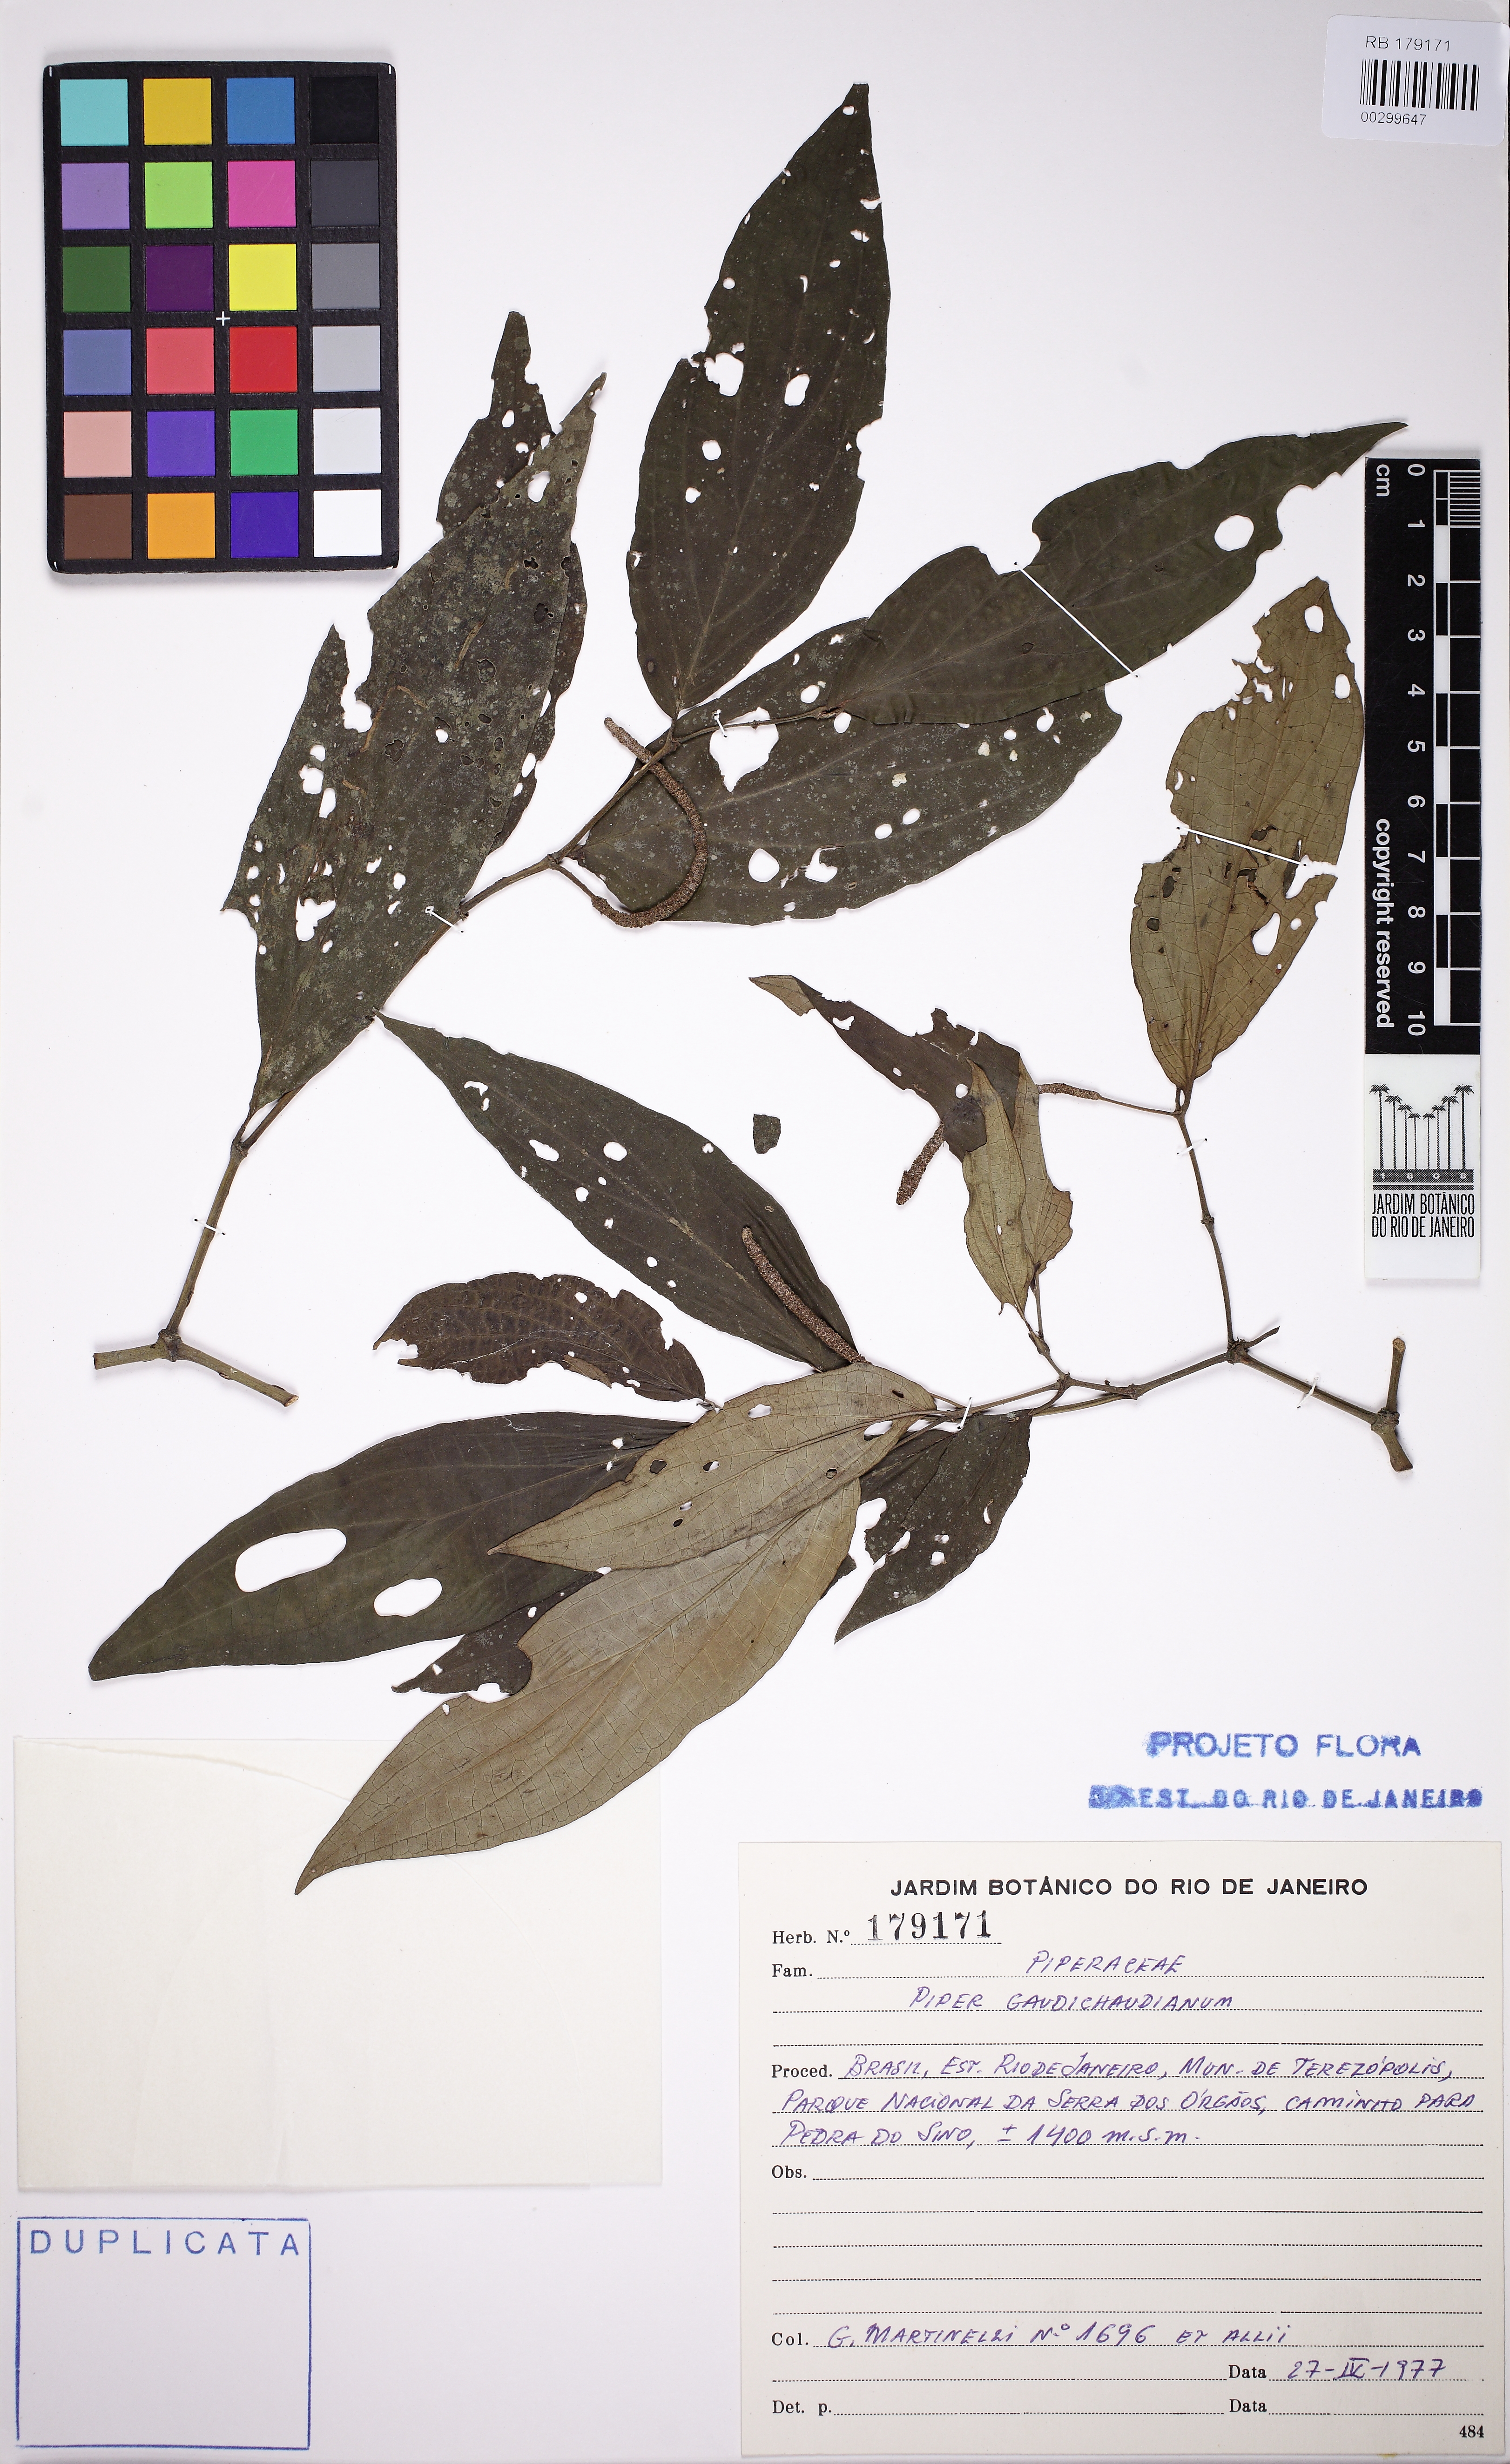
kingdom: Plantae
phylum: Tracheophyta
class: Magnoliopsida
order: Piperales
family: Piperaceae
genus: Piper
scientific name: Piper gaudichaudianum
